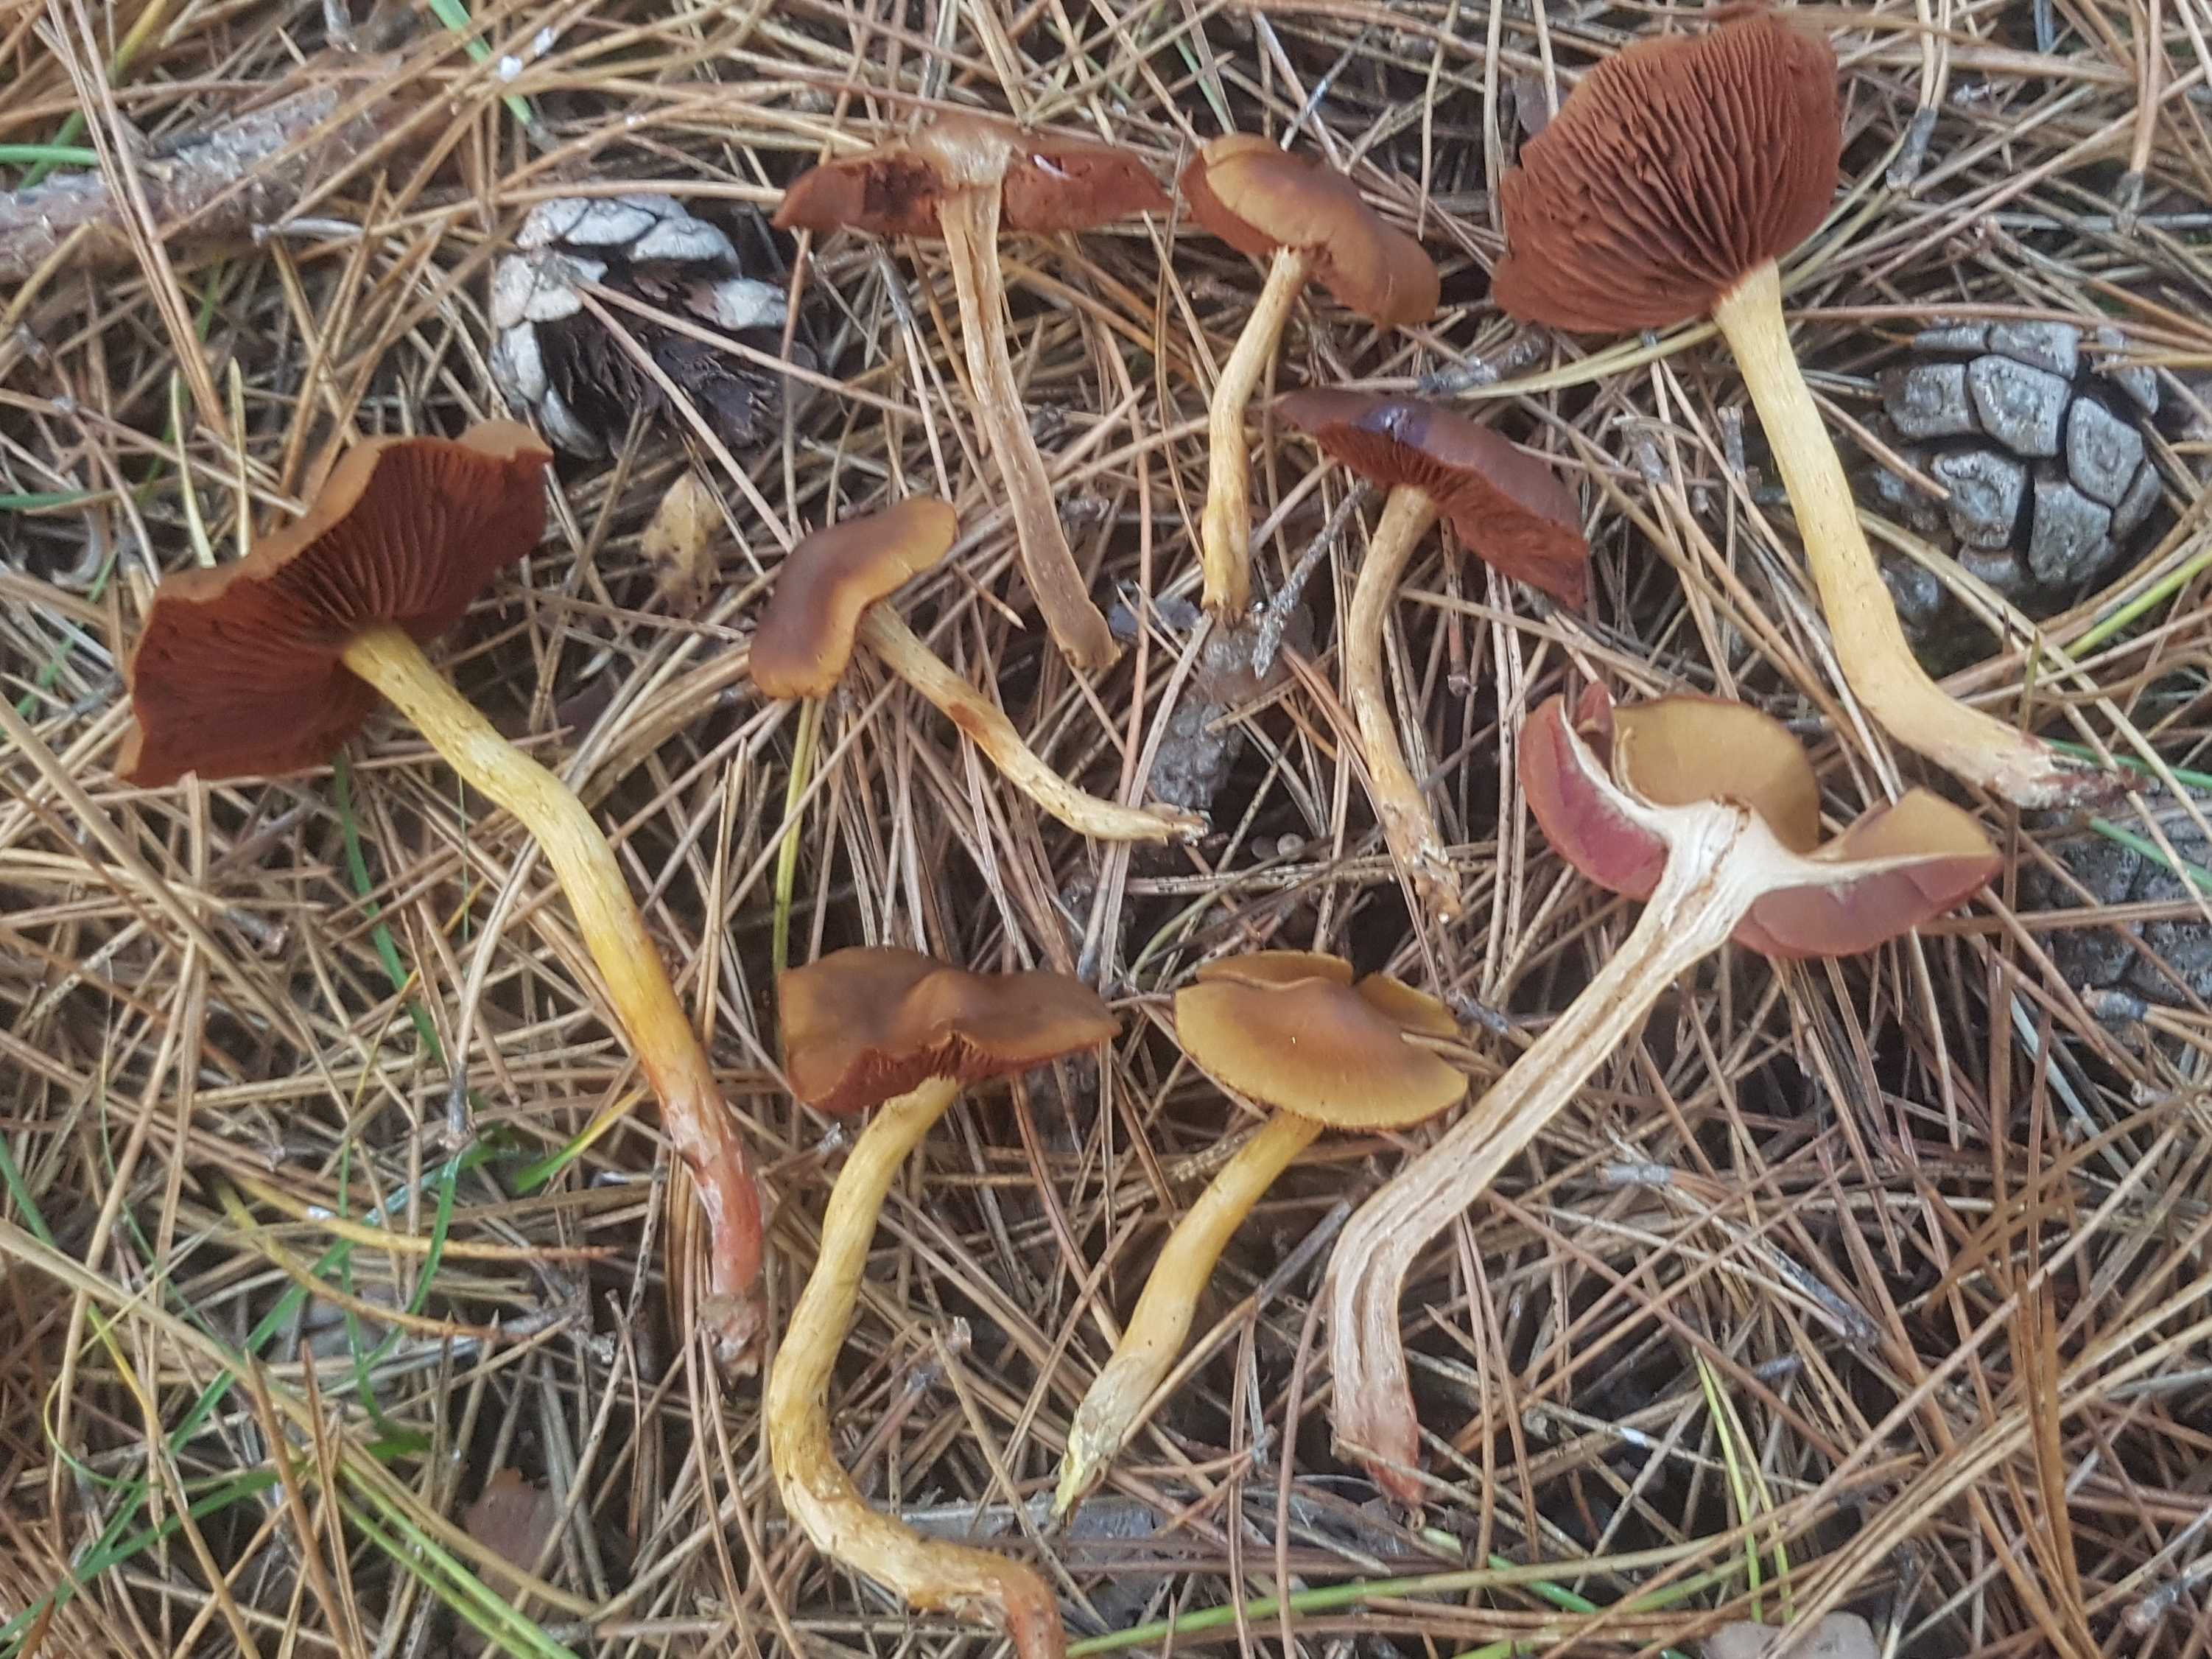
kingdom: Fungi
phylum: Basidiomycota
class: Agaricomycetes
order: Agaricales
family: Cortinariaceae
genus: Cortinarius
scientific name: Cortinarius
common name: cinnoberbladet slørhat
